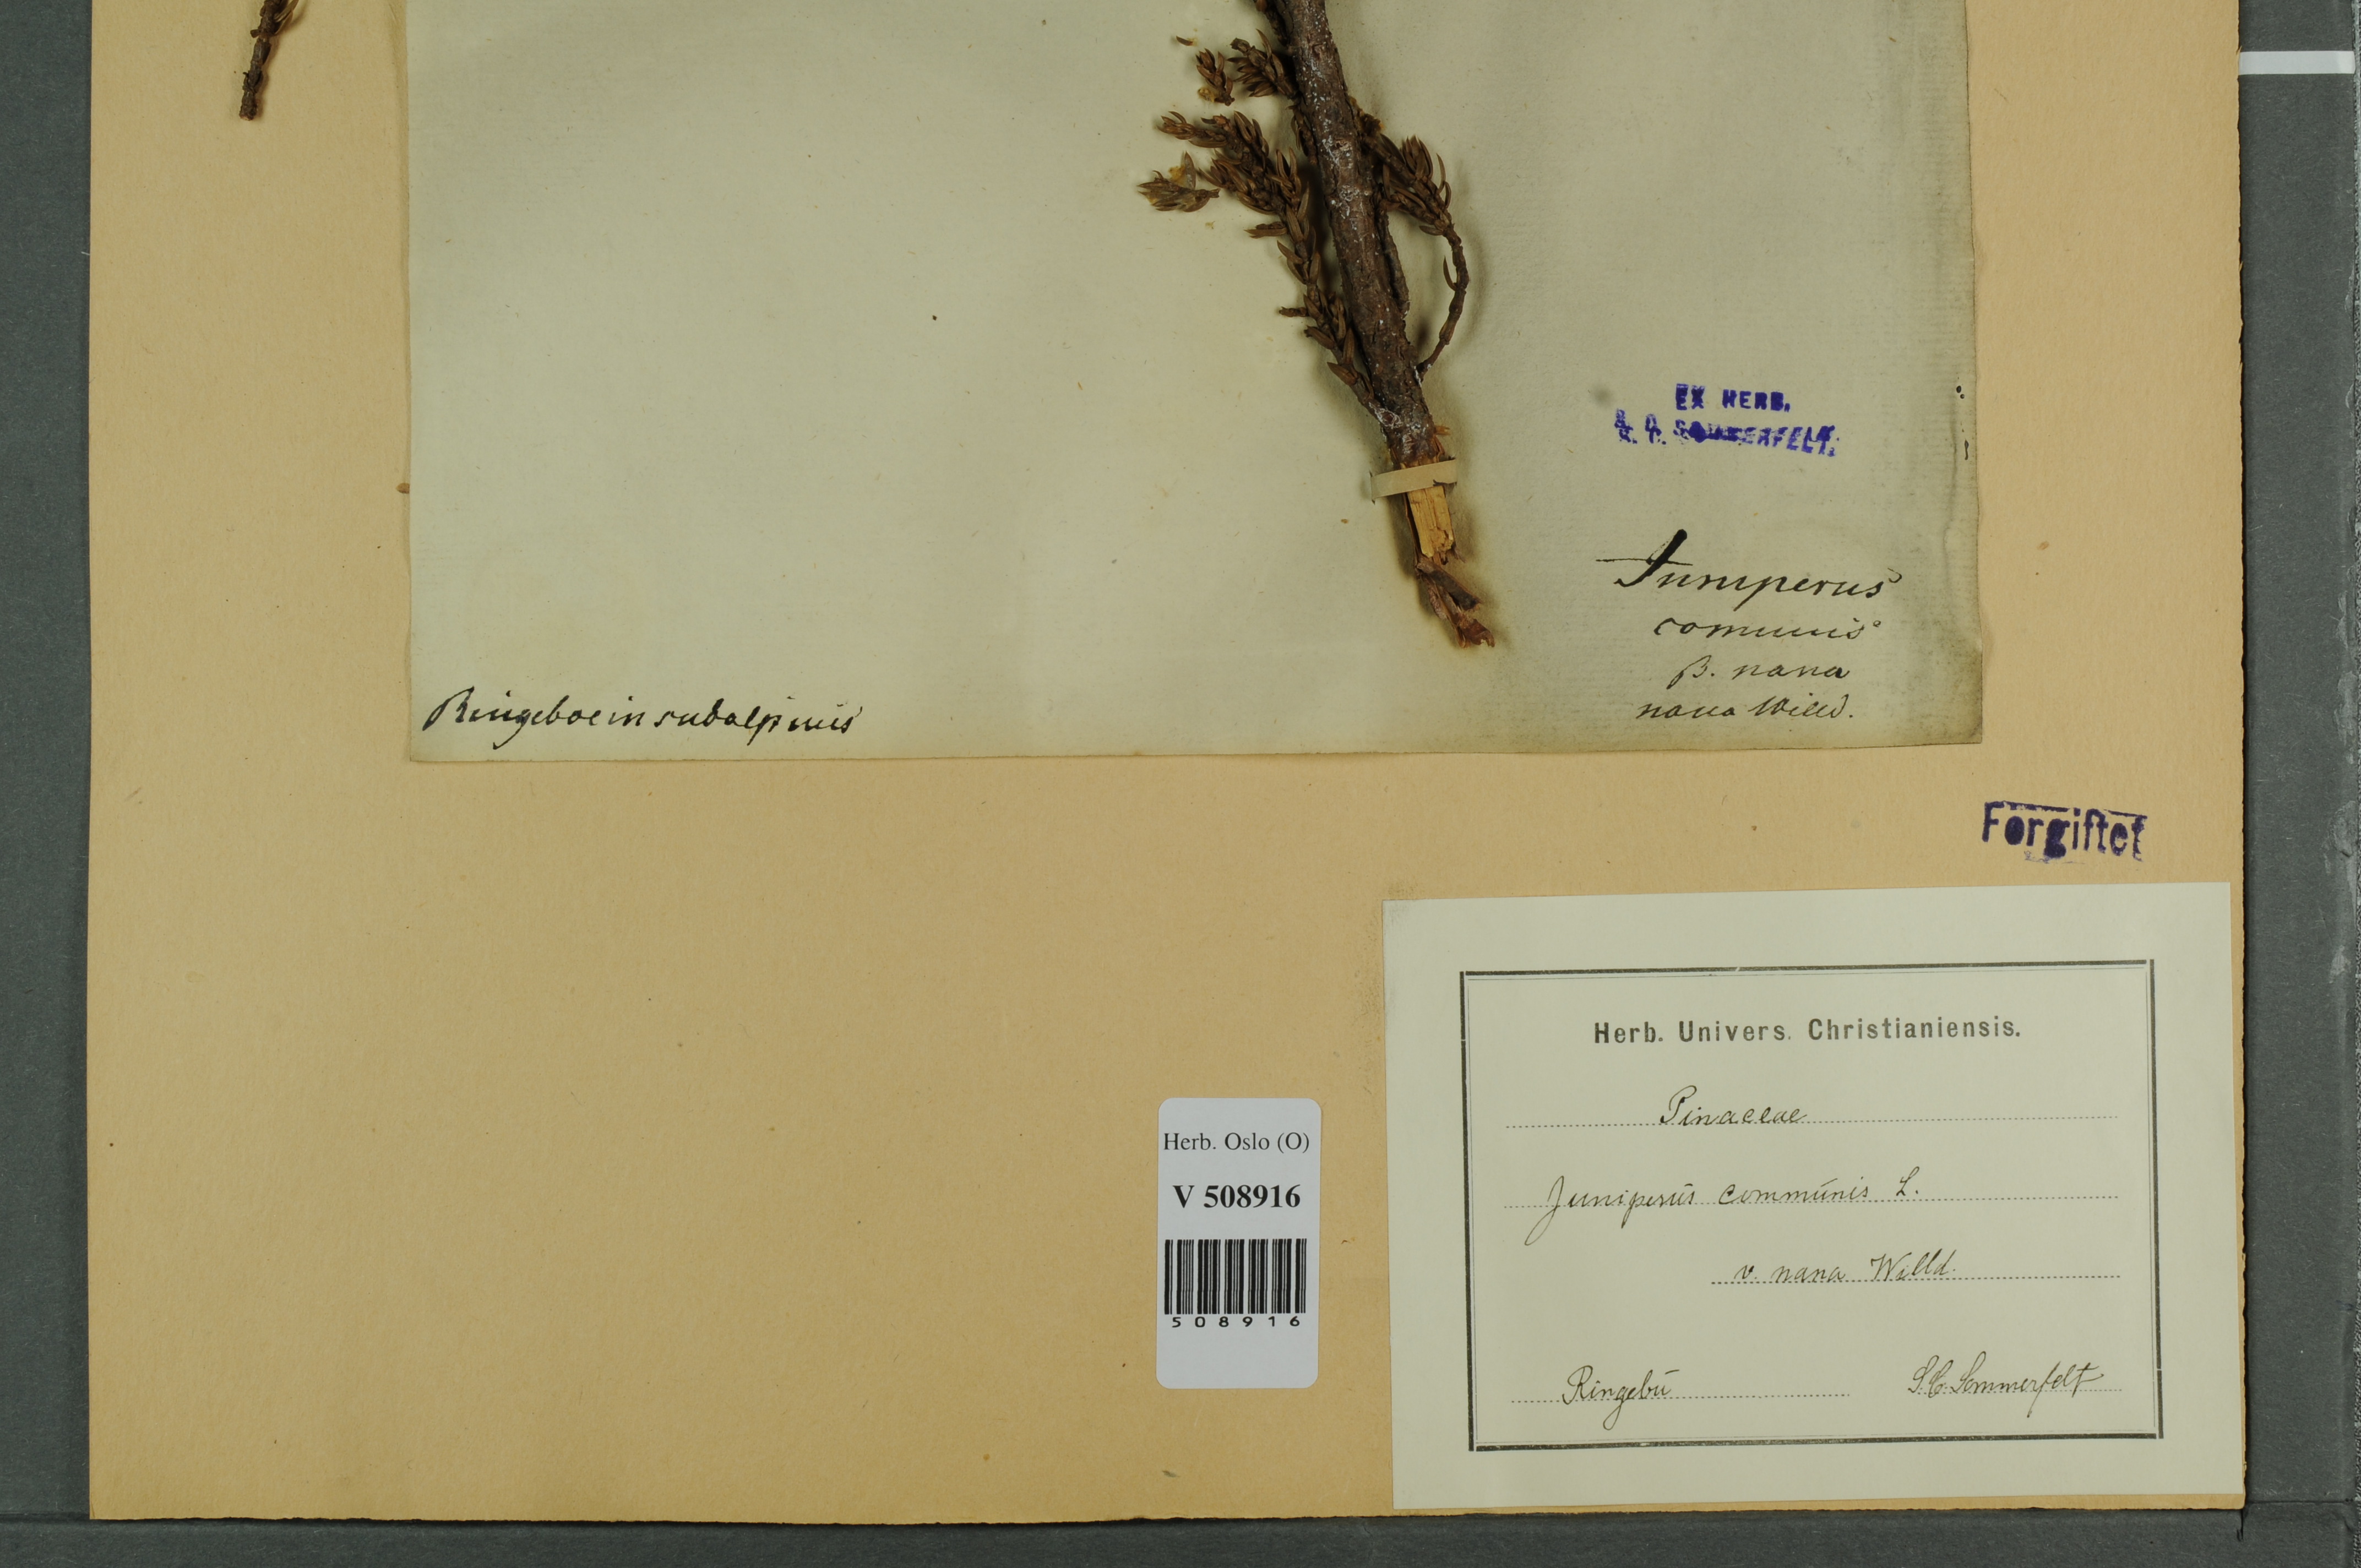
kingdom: Plantae
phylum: Tracheophyta
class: Pinopsida
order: Pinales
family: Cupressaceae
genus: Juniperus
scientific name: Juniperus communis
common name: Common juniper
